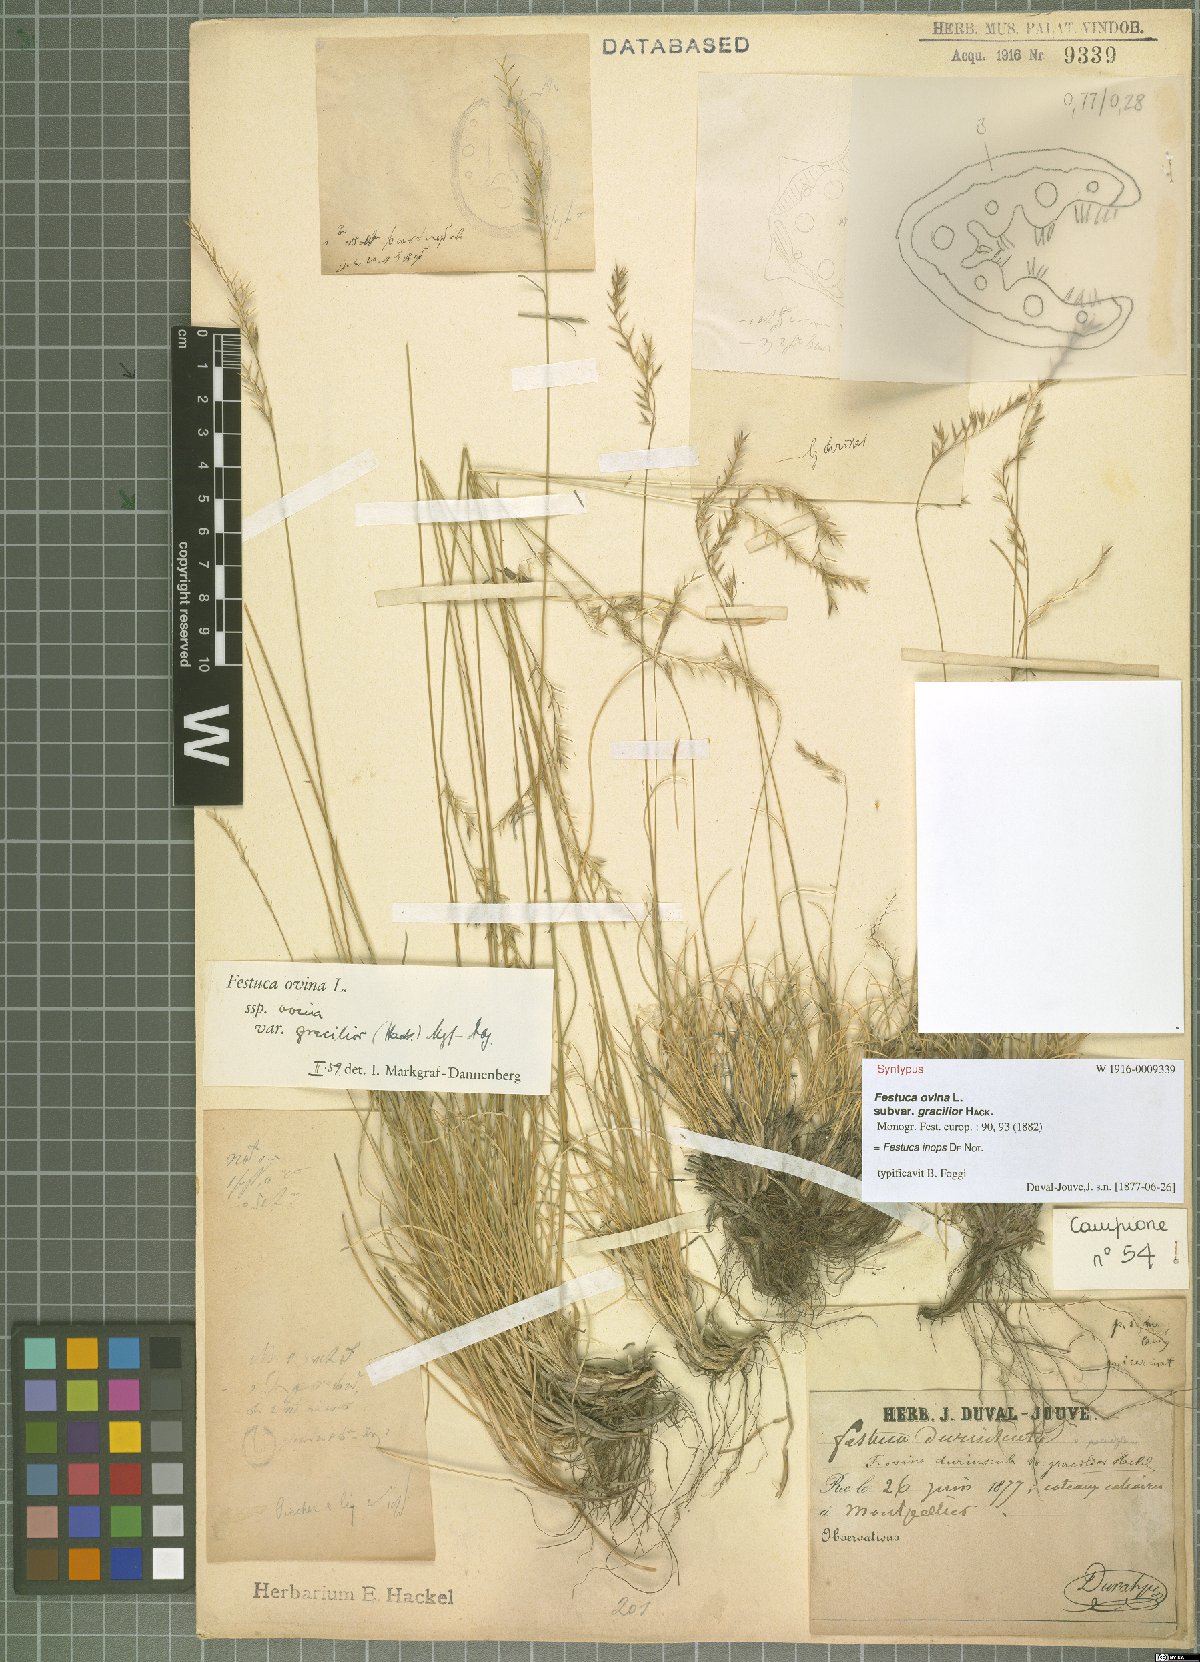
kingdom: Plantae
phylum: Tracheophyta
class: Liliopsida
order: Poales
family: Poaceae
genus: Festuca
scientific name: Festuca inops
